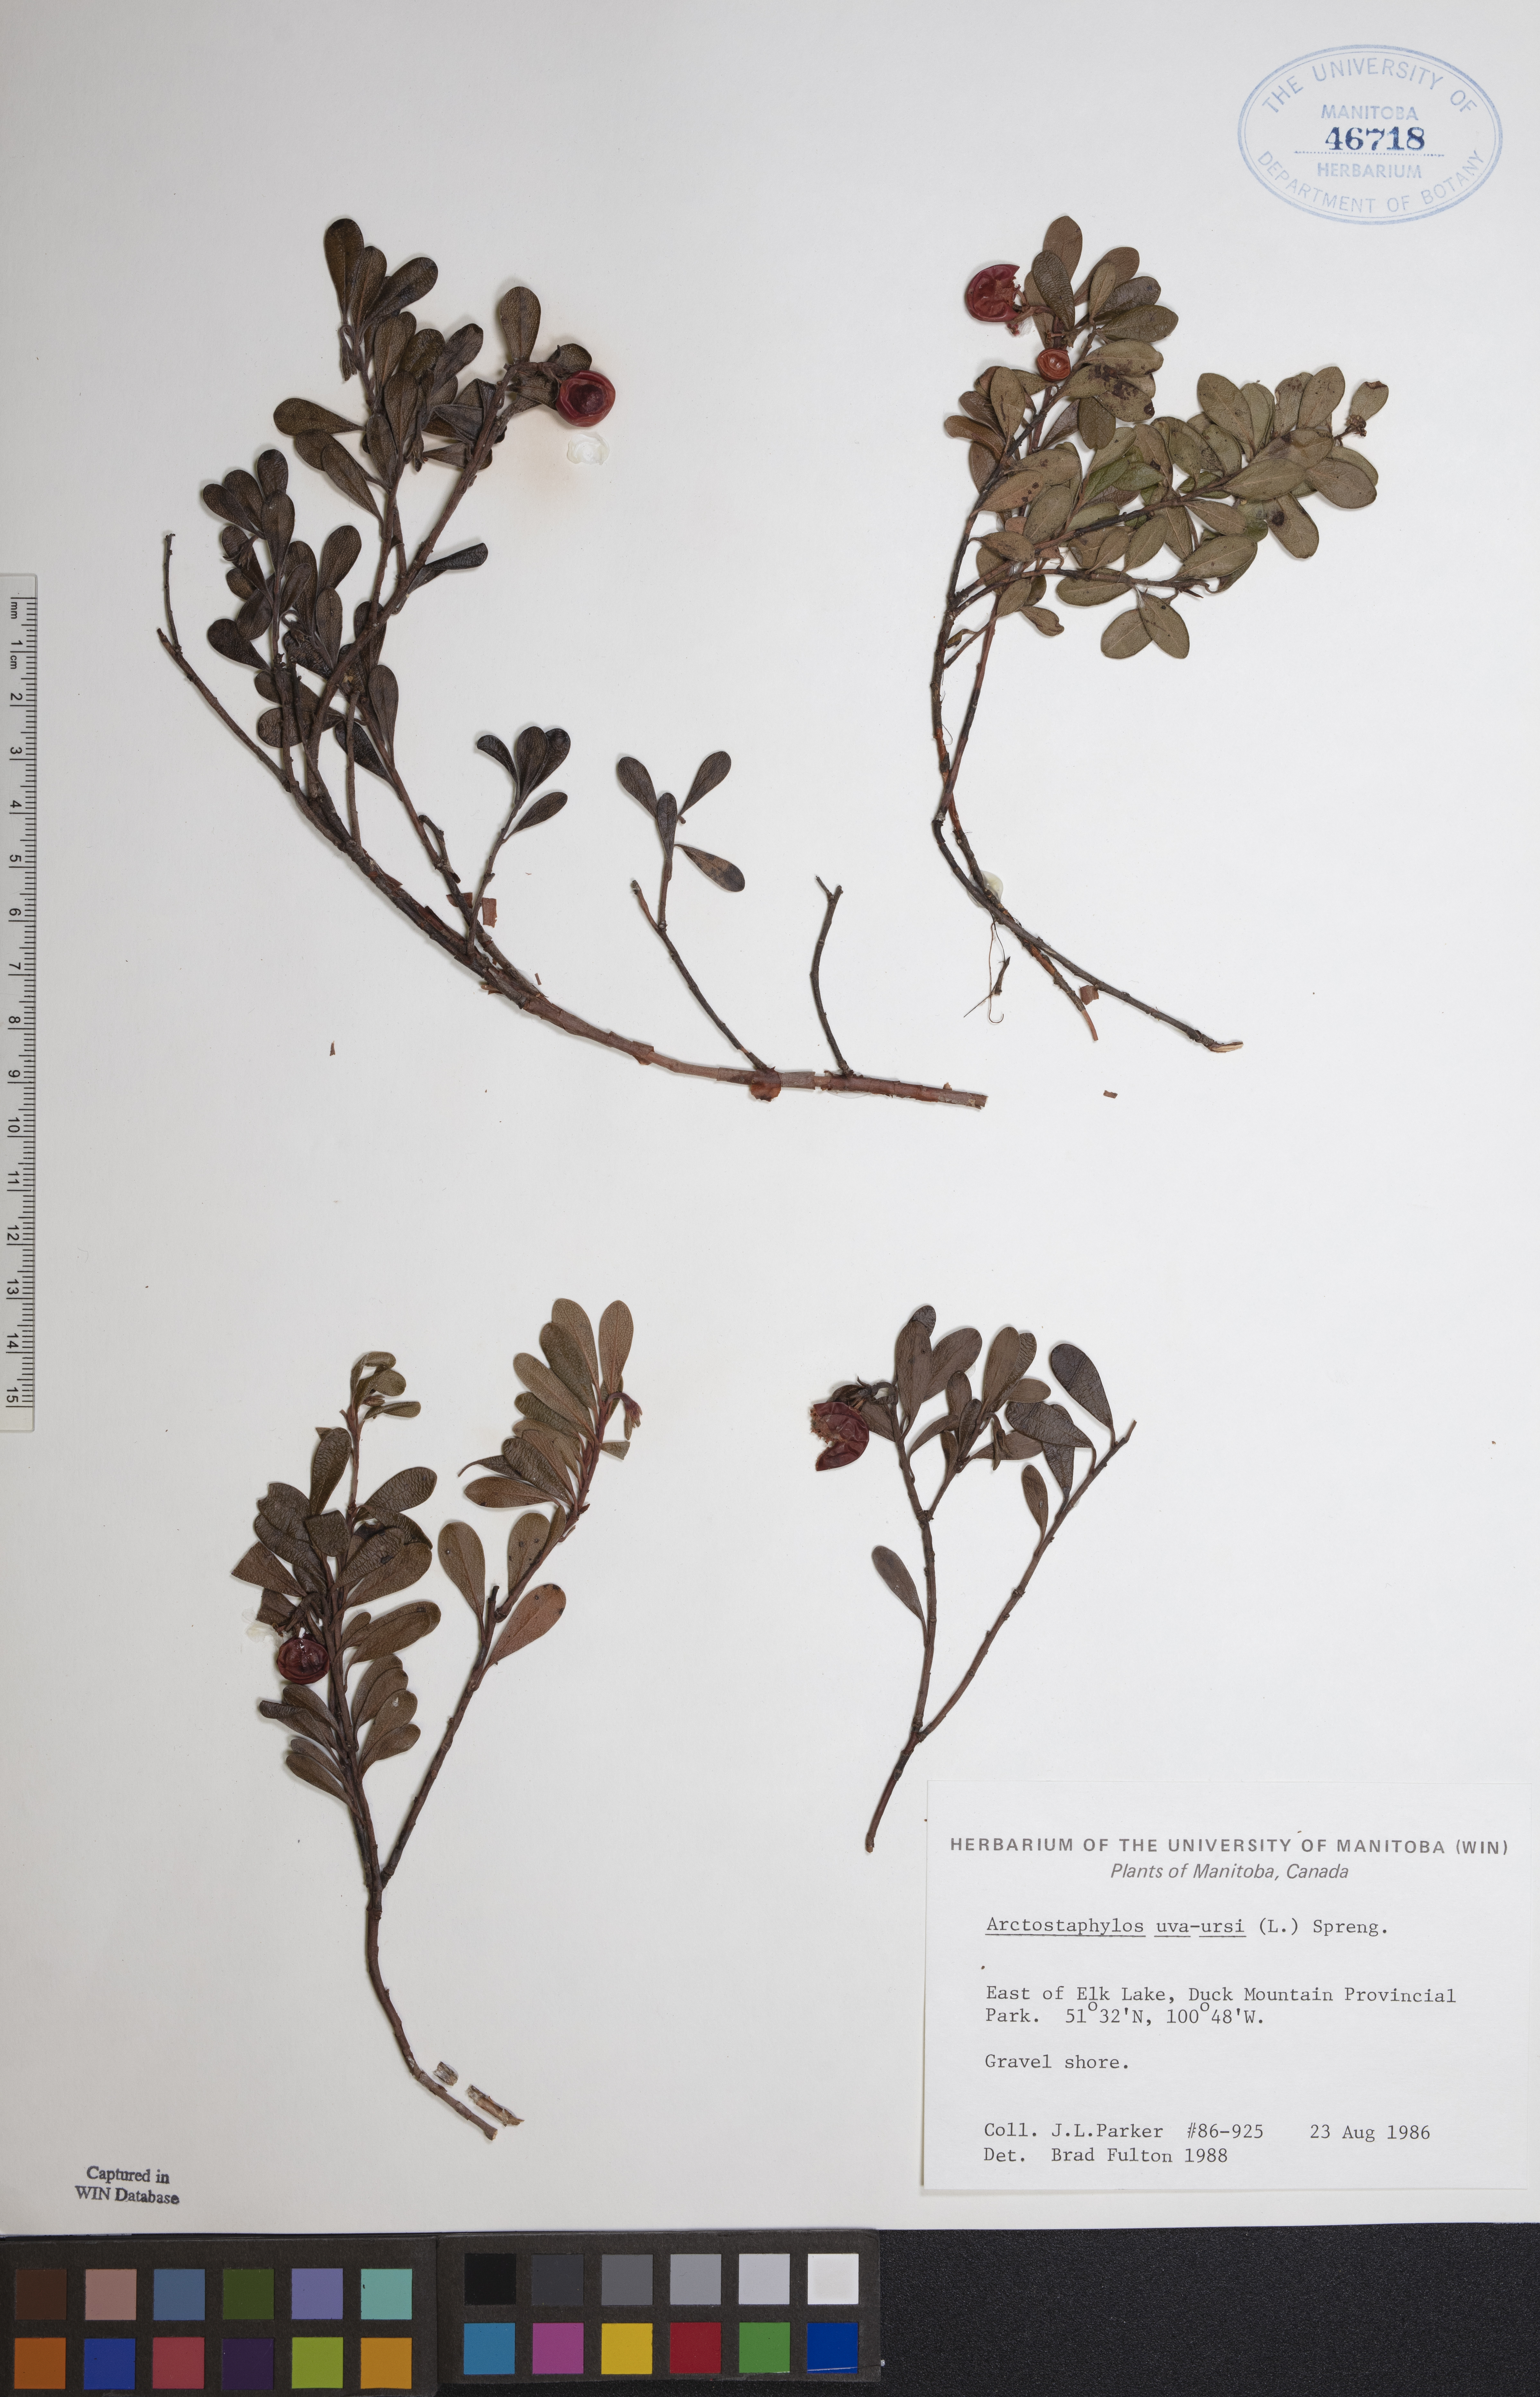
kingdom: Plantae
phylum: Tracheophyta
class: Magnoliopsida
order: Ericales
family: Ericaceae
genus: Arctostaphylos
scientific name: Arctostaphylos uva-ursi
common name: Bearberry
